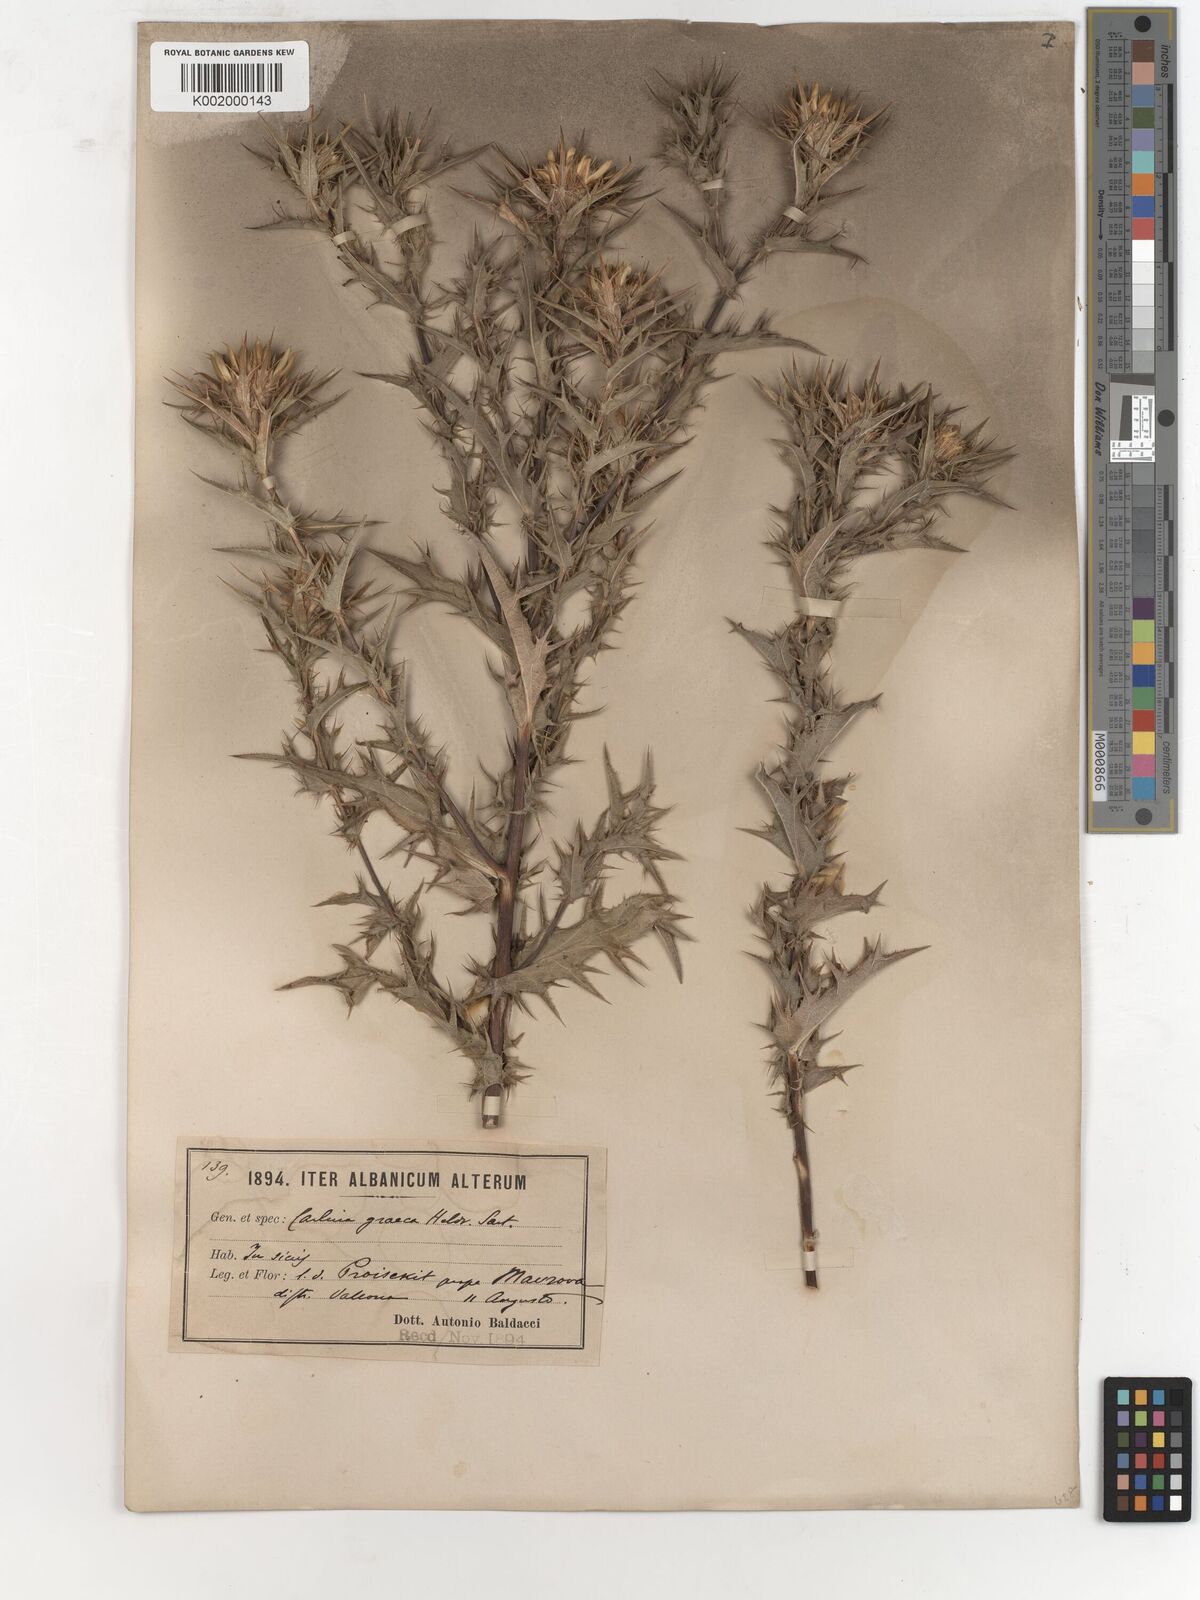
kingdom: Plantae
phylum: Tracheophyta
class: Magnoliopsida
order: Asterales
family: Asteraceae
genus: Carlina
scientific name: Carlina corymbosa
